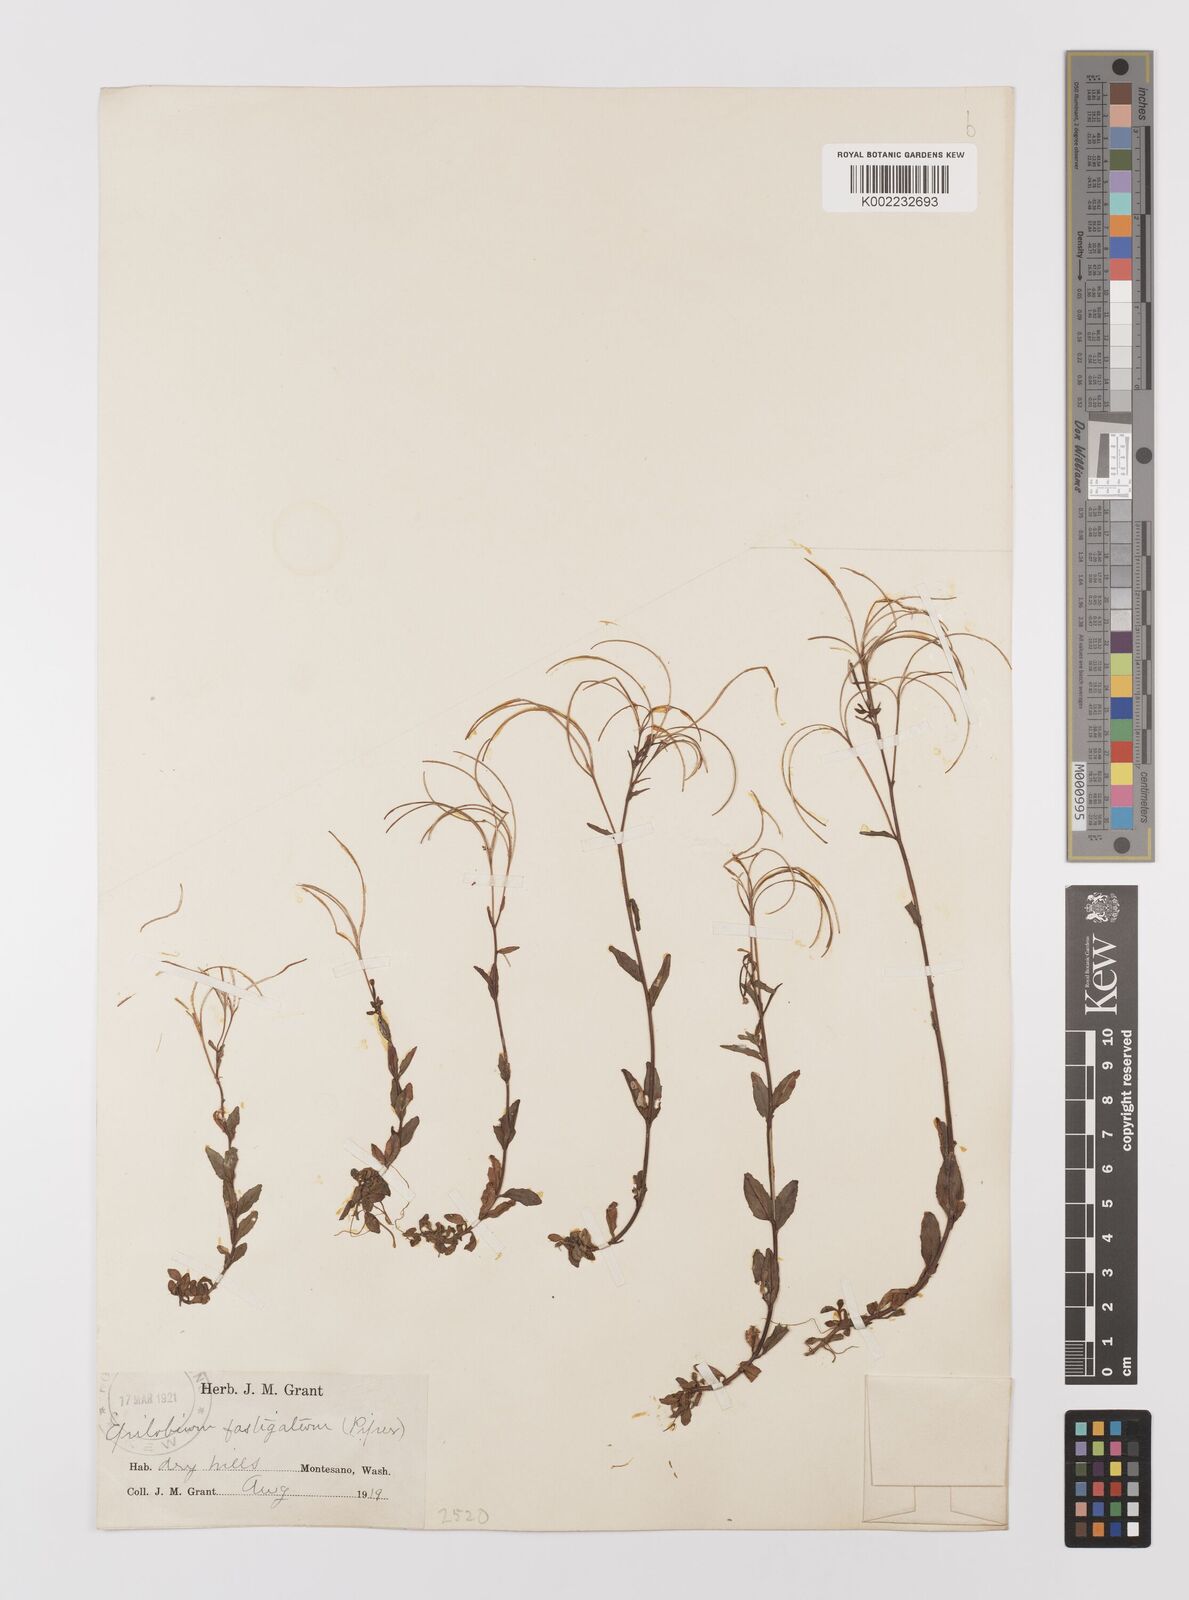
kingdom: Plantae
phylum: Tracheophyta
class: Magnoliopsida
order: Myrtales
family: Onagraceae
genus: Epilobium
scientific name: Epilobium
